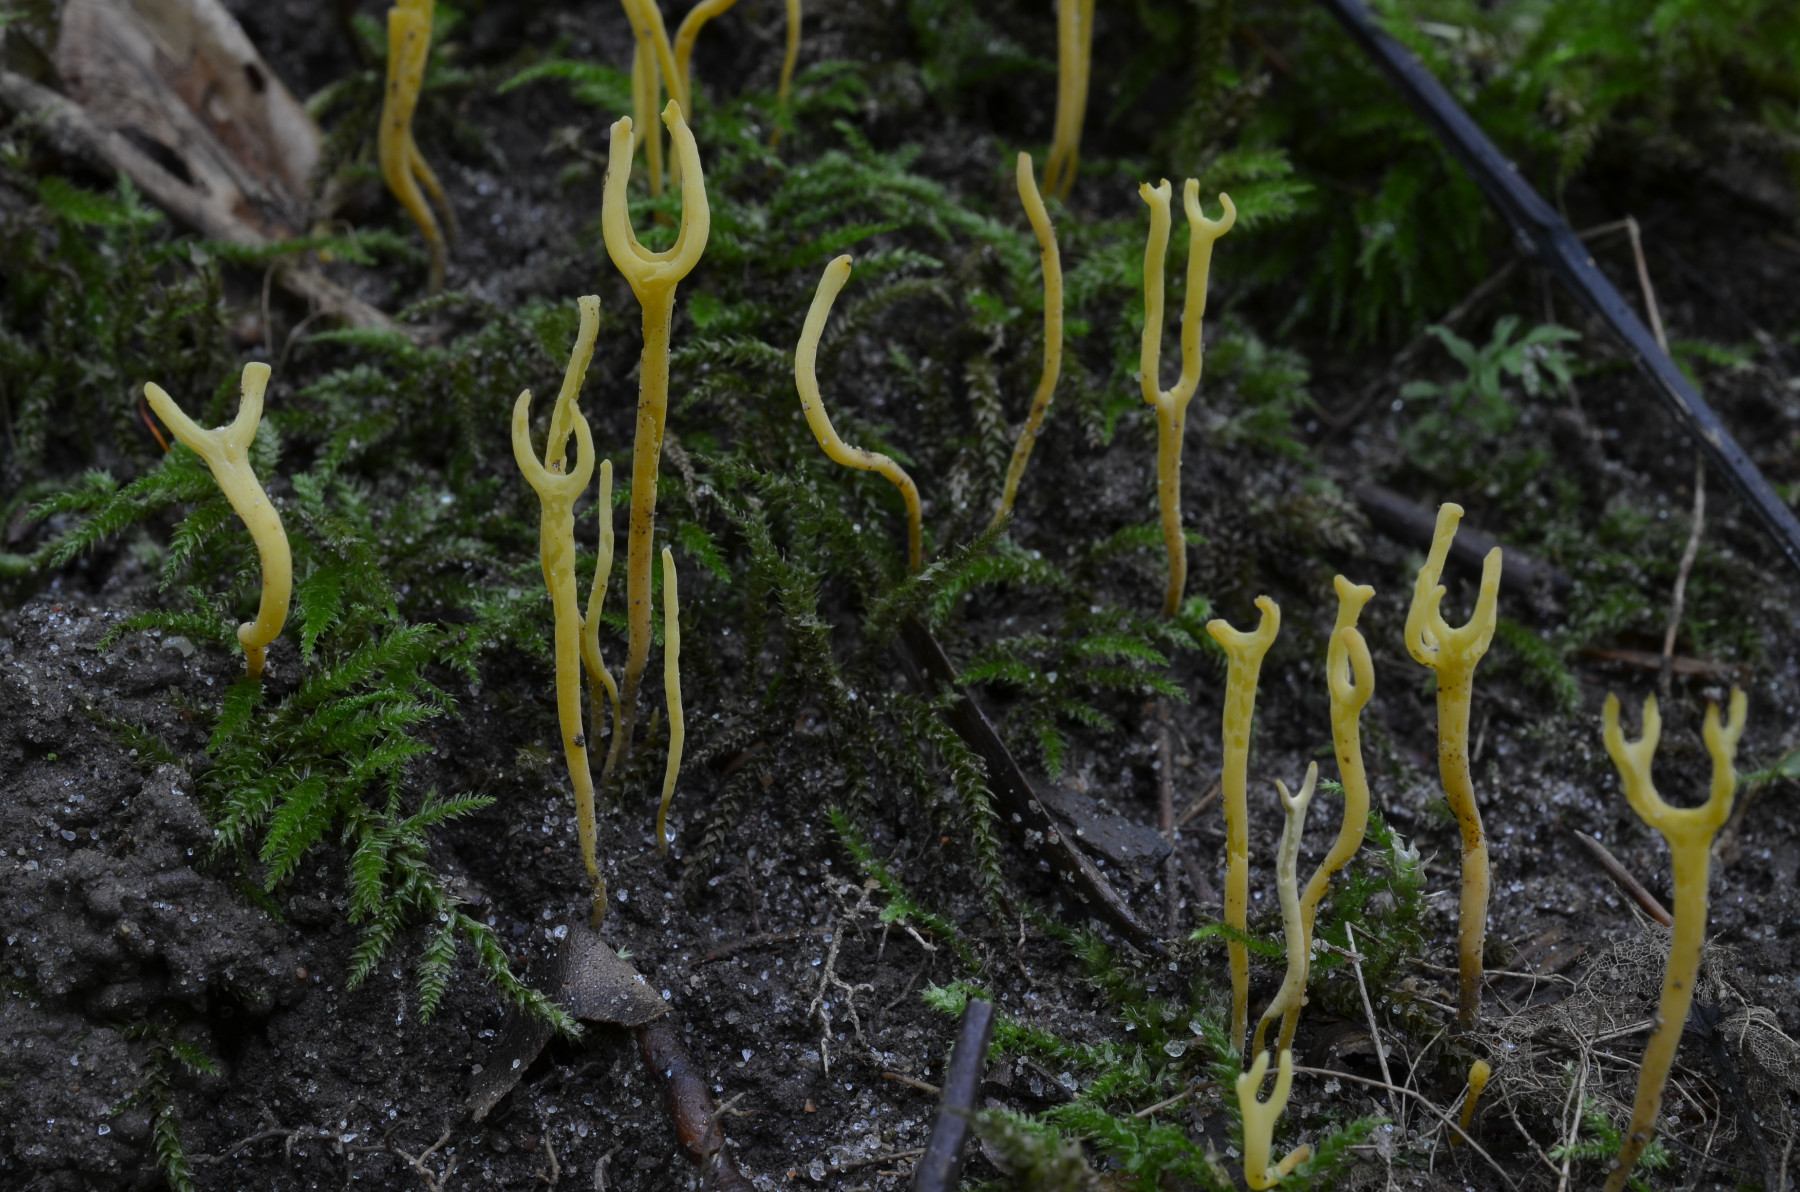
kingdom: Fungi
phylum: Basidiomycota
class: Agaricomycetes
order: Agaricales
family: Clavariaceae
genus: Clavulinopsis
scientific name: Clavulinopsis corniculata
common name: eng-køllesvamp
